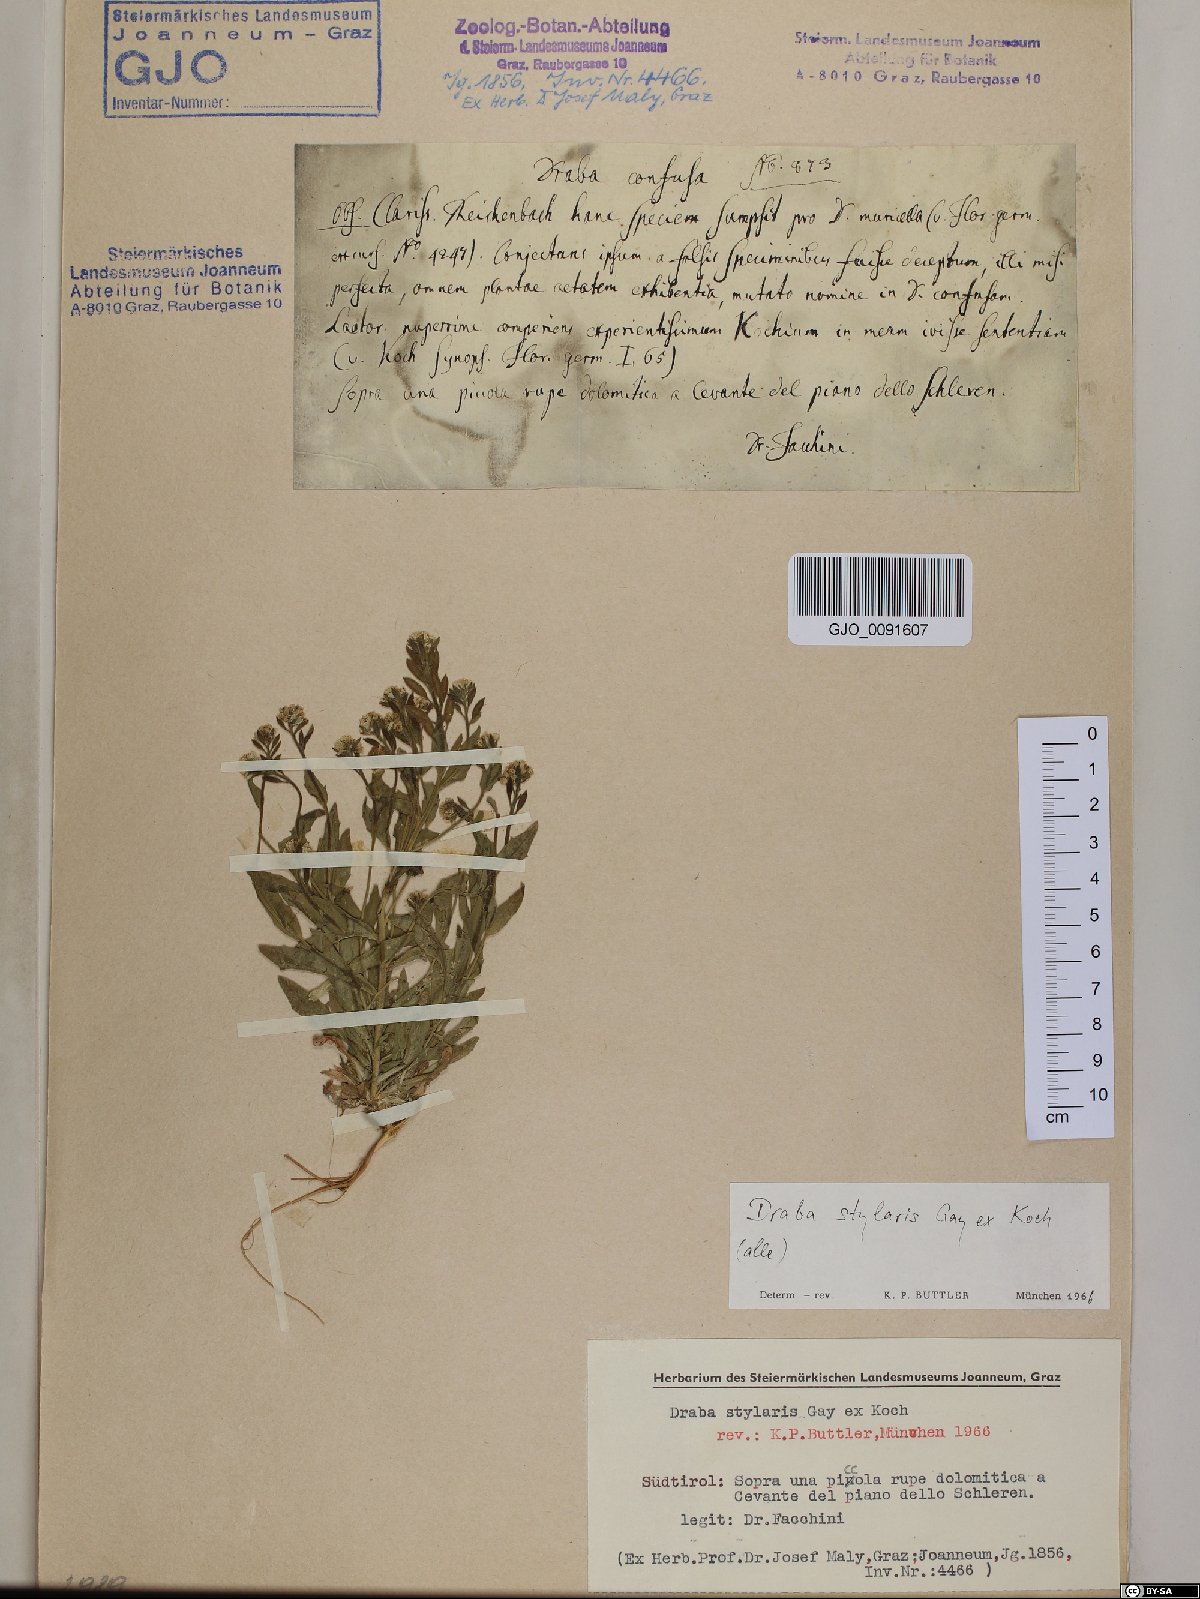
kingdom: Plantae
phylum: Tracheophyta
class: Magnoliopsida
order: Brassicales
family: Brassicaceae
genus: Draba
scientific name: Draba thomasii
